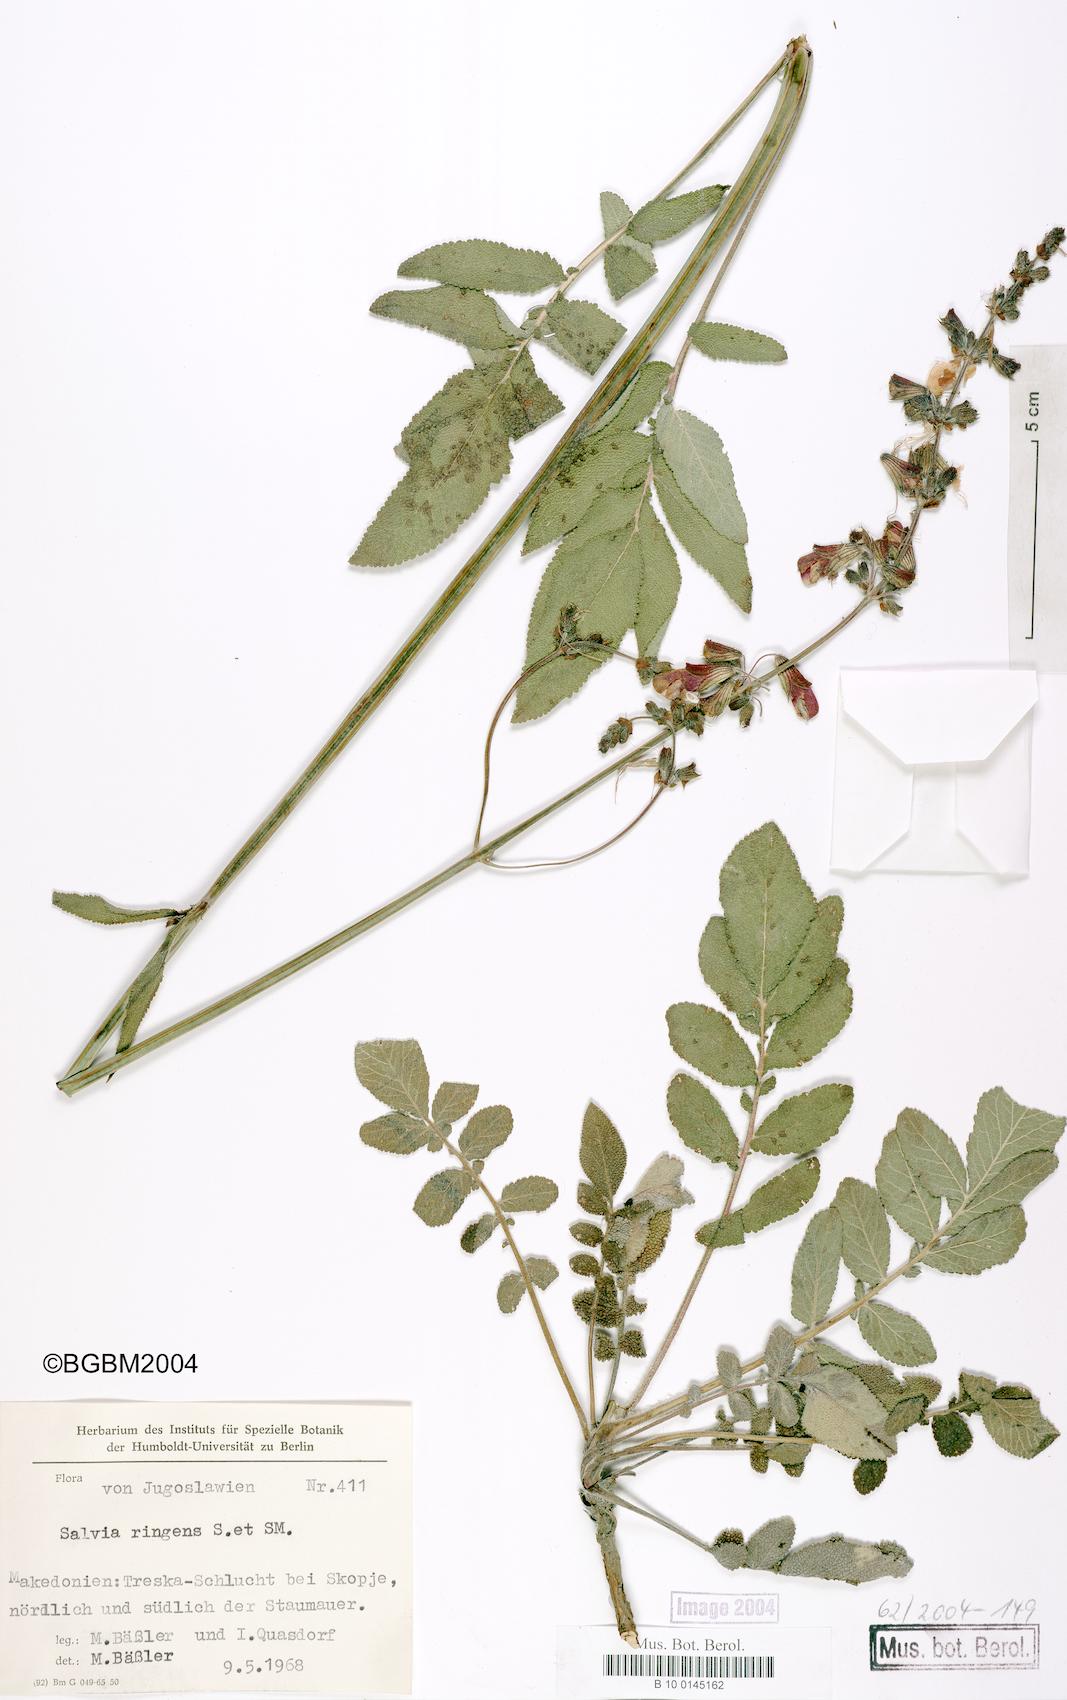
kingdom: Plantae
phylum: Tracheophyta
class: Magnoliopsida
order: Lamiales
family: Lamiaceae
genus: Salvia
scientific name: Salvia ringens
